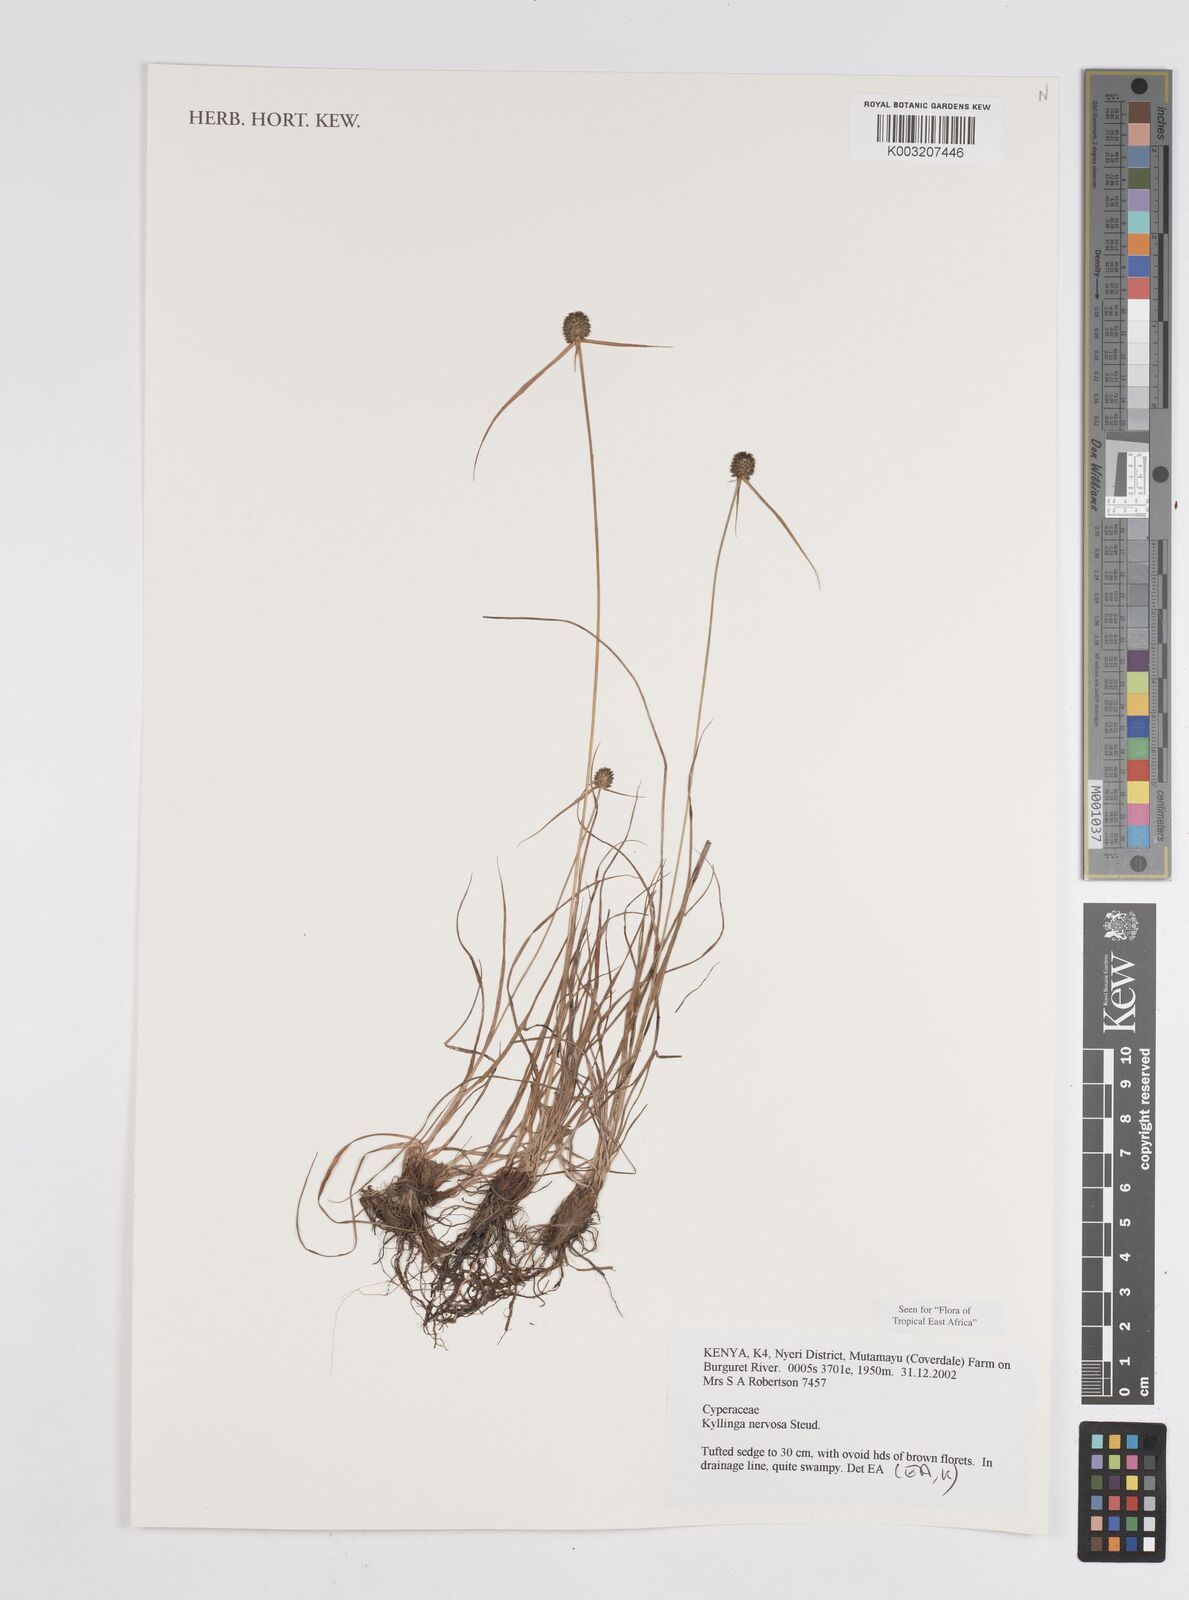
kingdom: Plantae
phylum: Tracheophyta
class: Liliopsida
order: Poales
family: Cyperaceae
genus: Cyperus
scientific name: Cyperus
